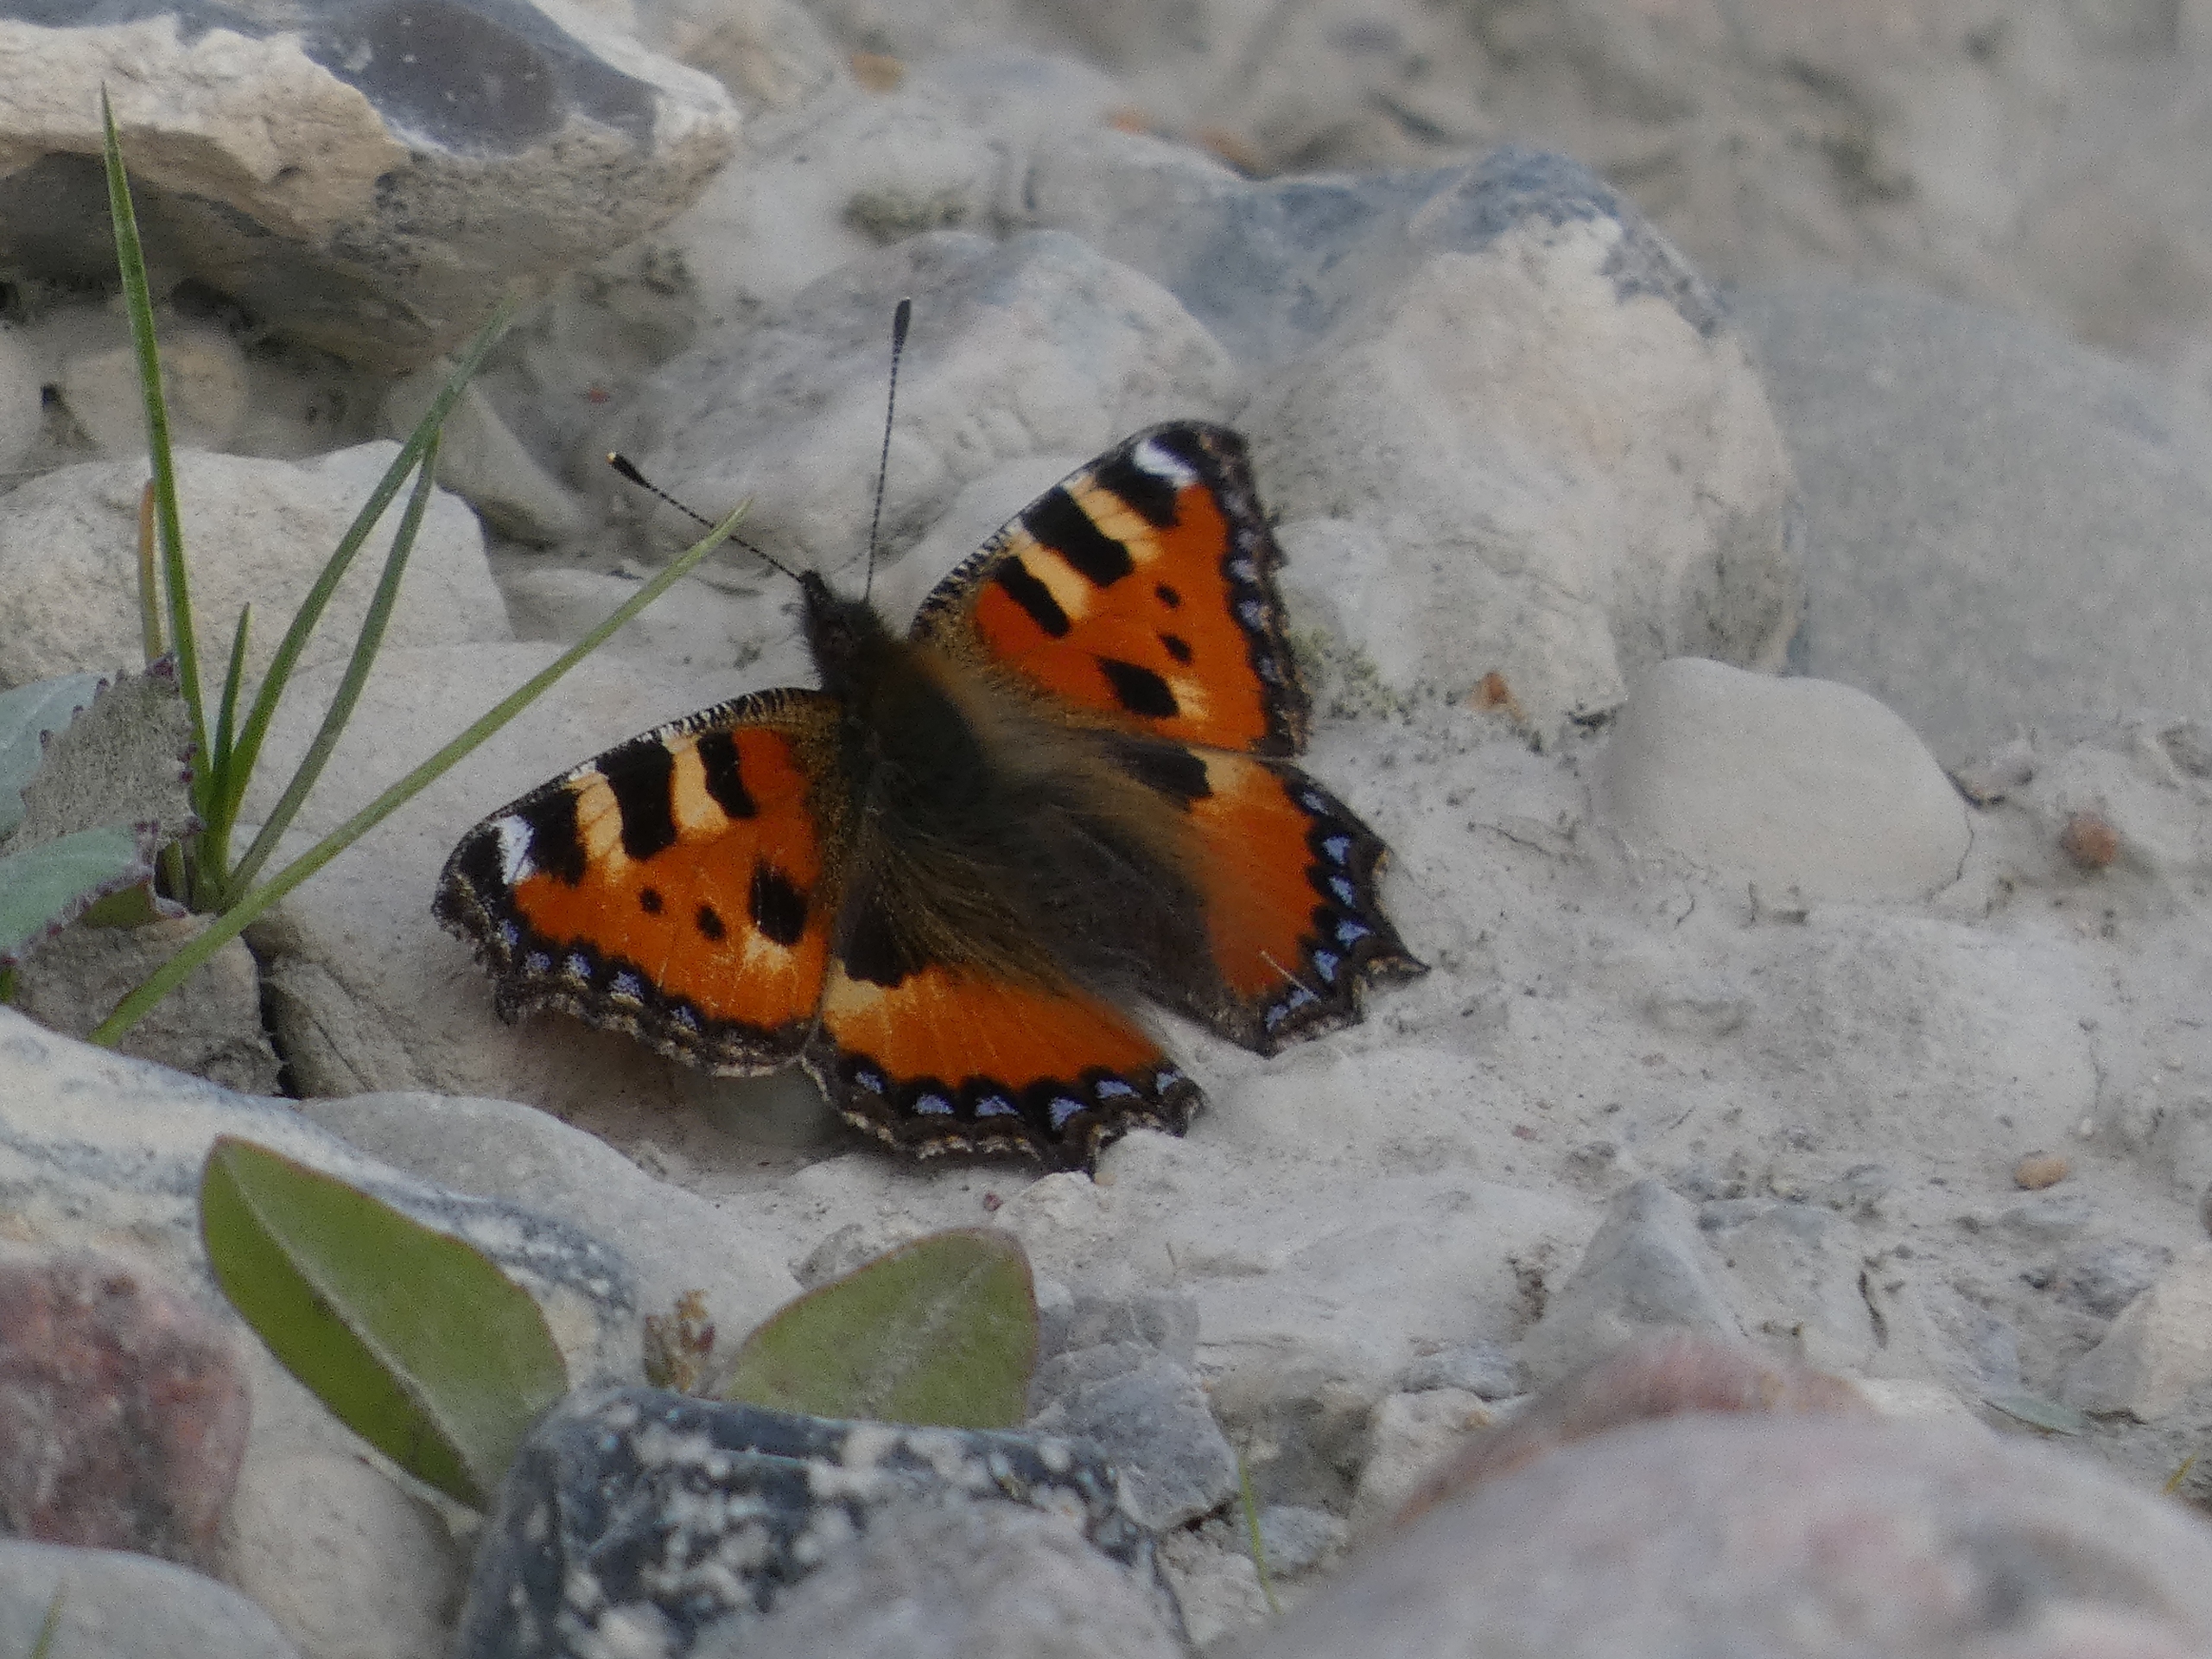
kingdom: Animalia
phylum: Arthropoda
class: Insecta
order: Lepidoptera
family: Nymphalidae
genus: Aglais
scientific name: Aglais urticae
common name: Nældens takvinge
